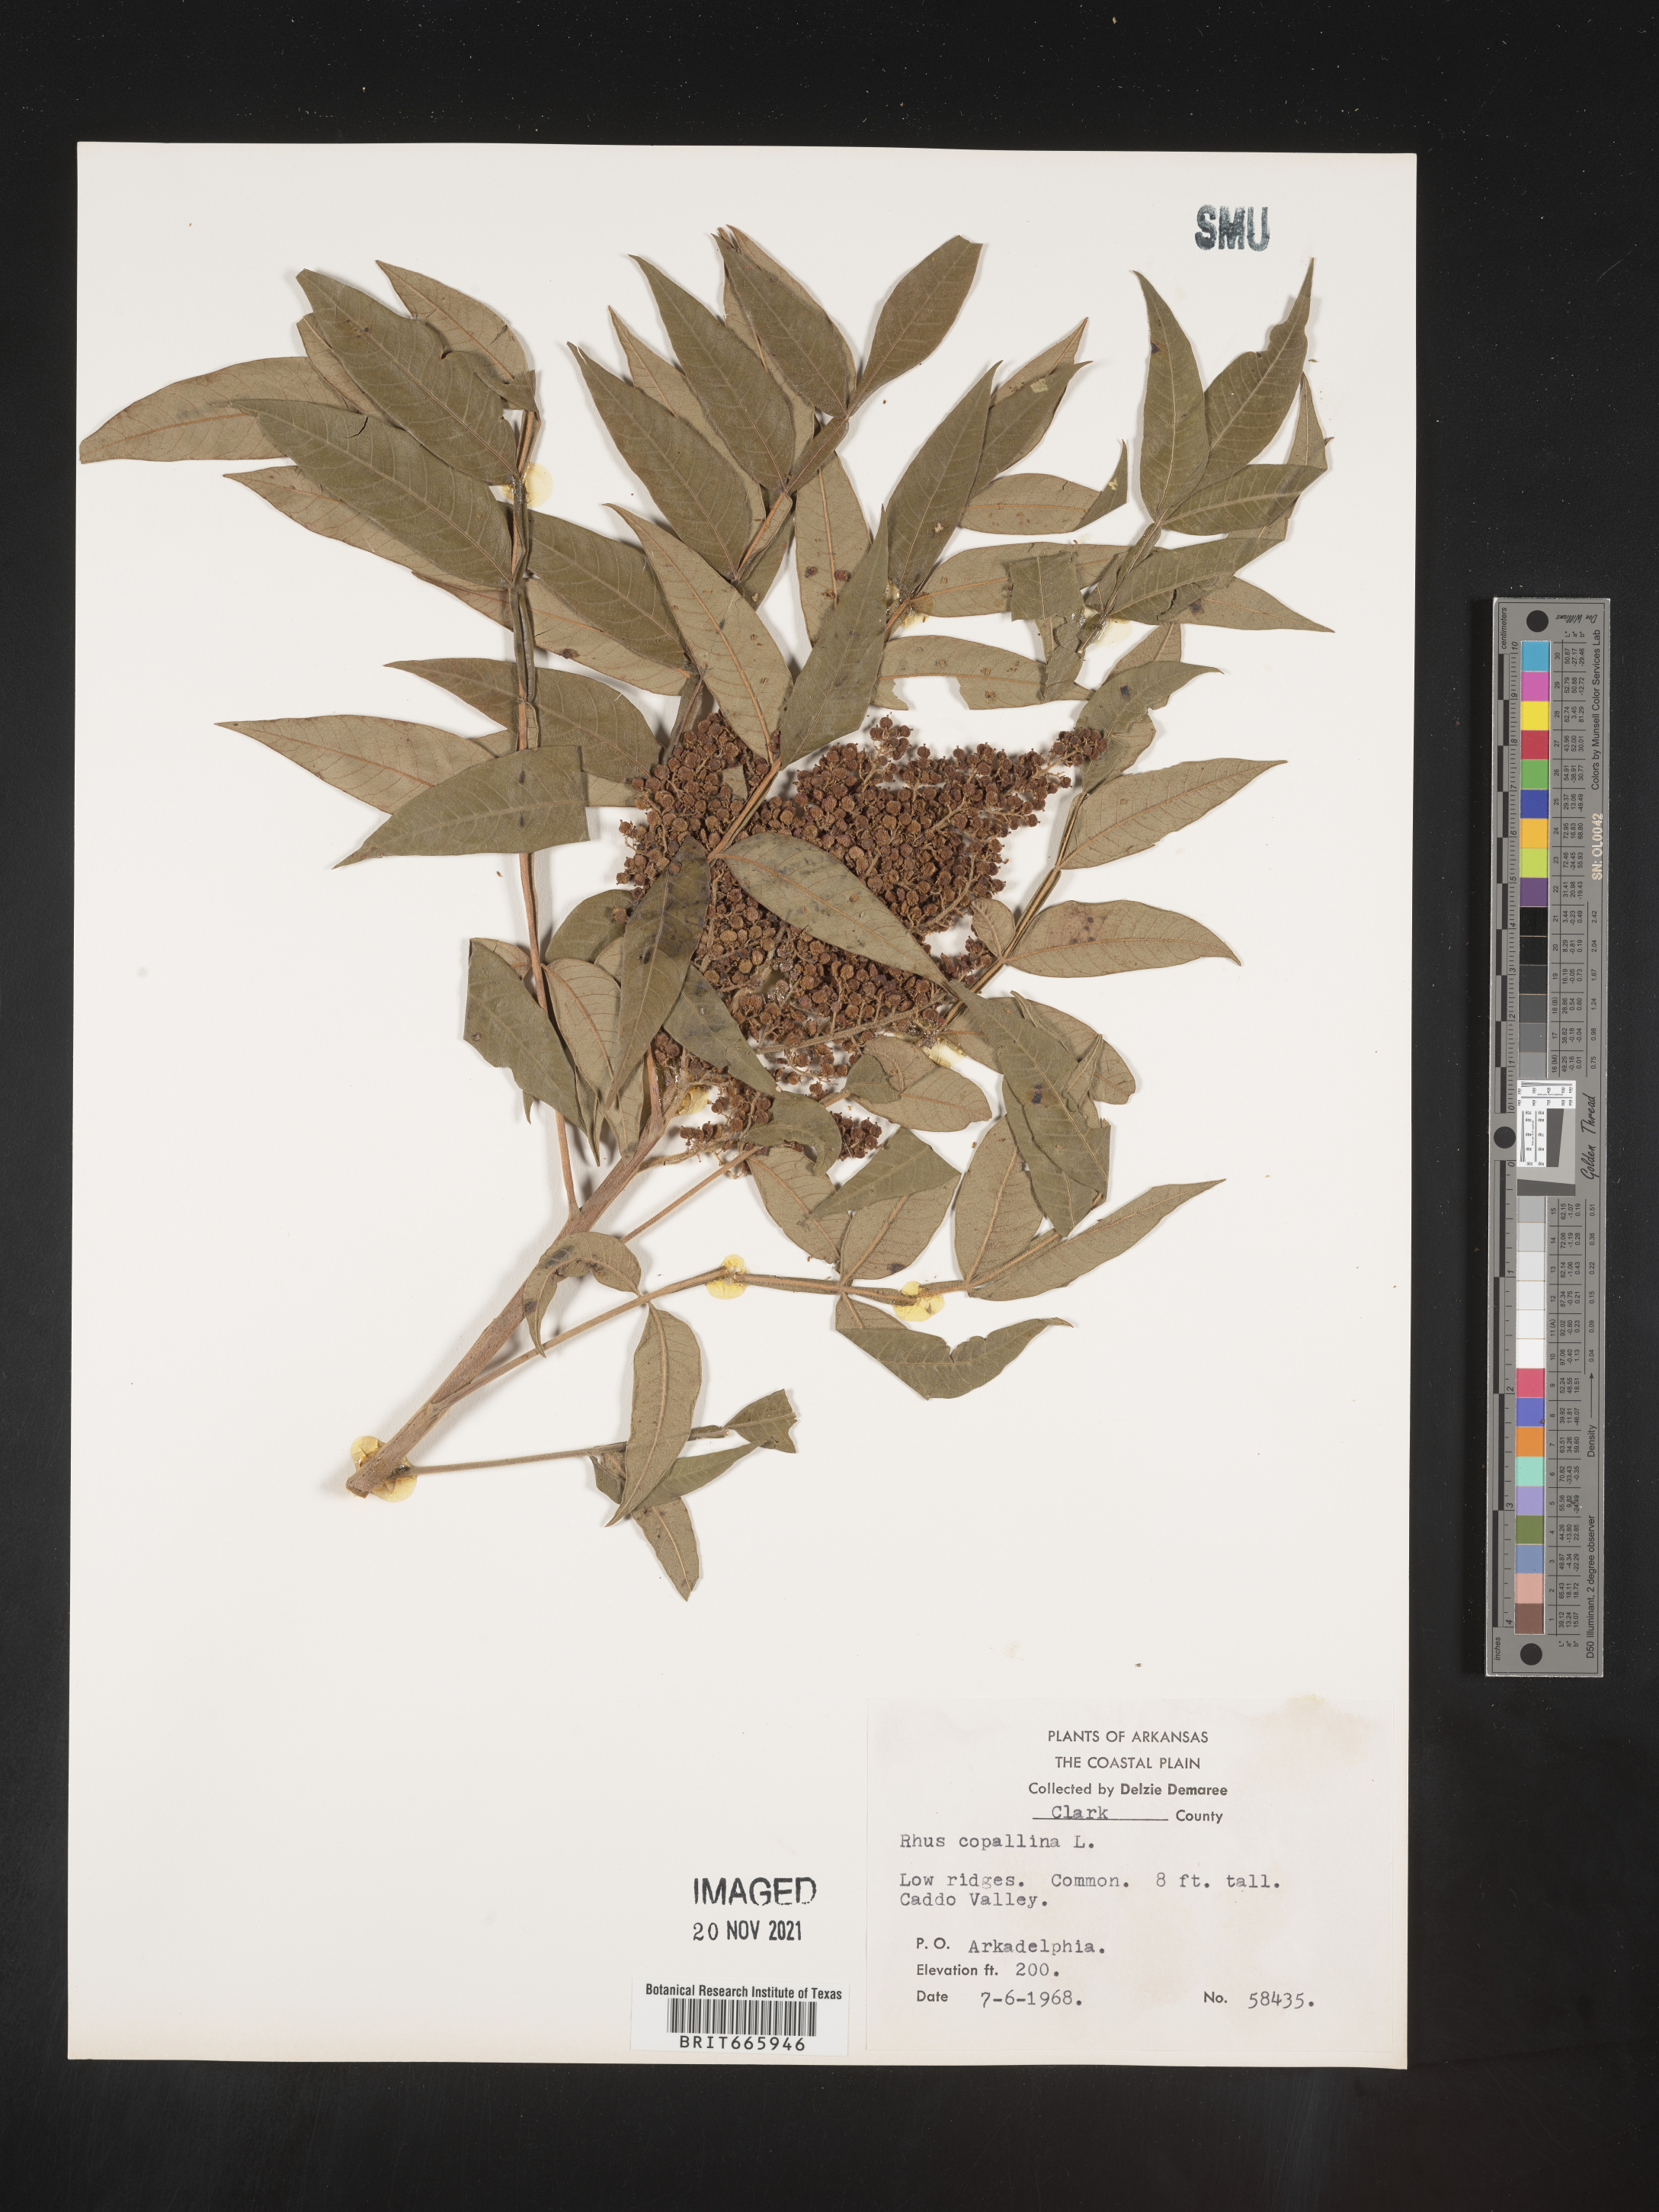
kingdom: Plantae
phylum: Tracheophyta
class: Magnoliopsida
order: Sapindales
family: Anacardiaceae
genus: Rhus
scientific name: Rhus copallina
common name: Shining sumac
